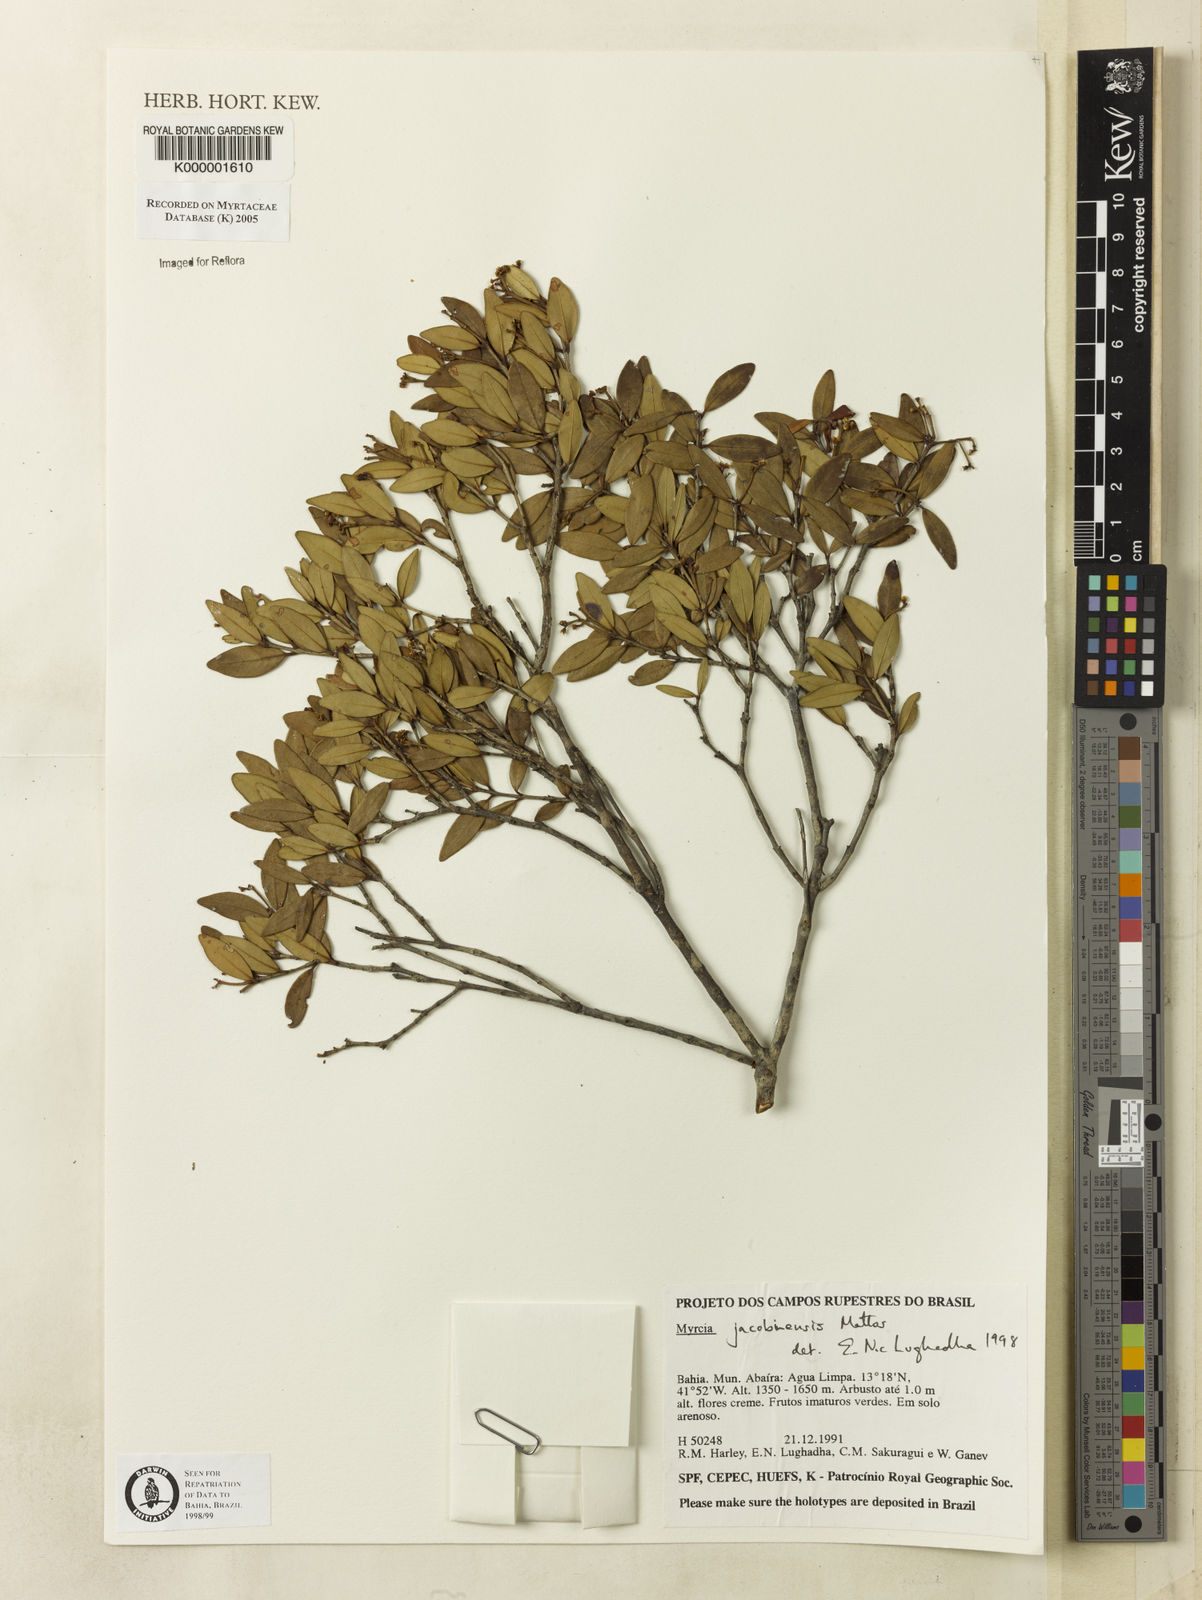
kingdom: Plantae
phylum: Tracheophyta
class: Magnoliopsida
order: Myrtales
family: Myrtaceae
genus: Myrcia
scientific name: Myrcia jacobinensis
